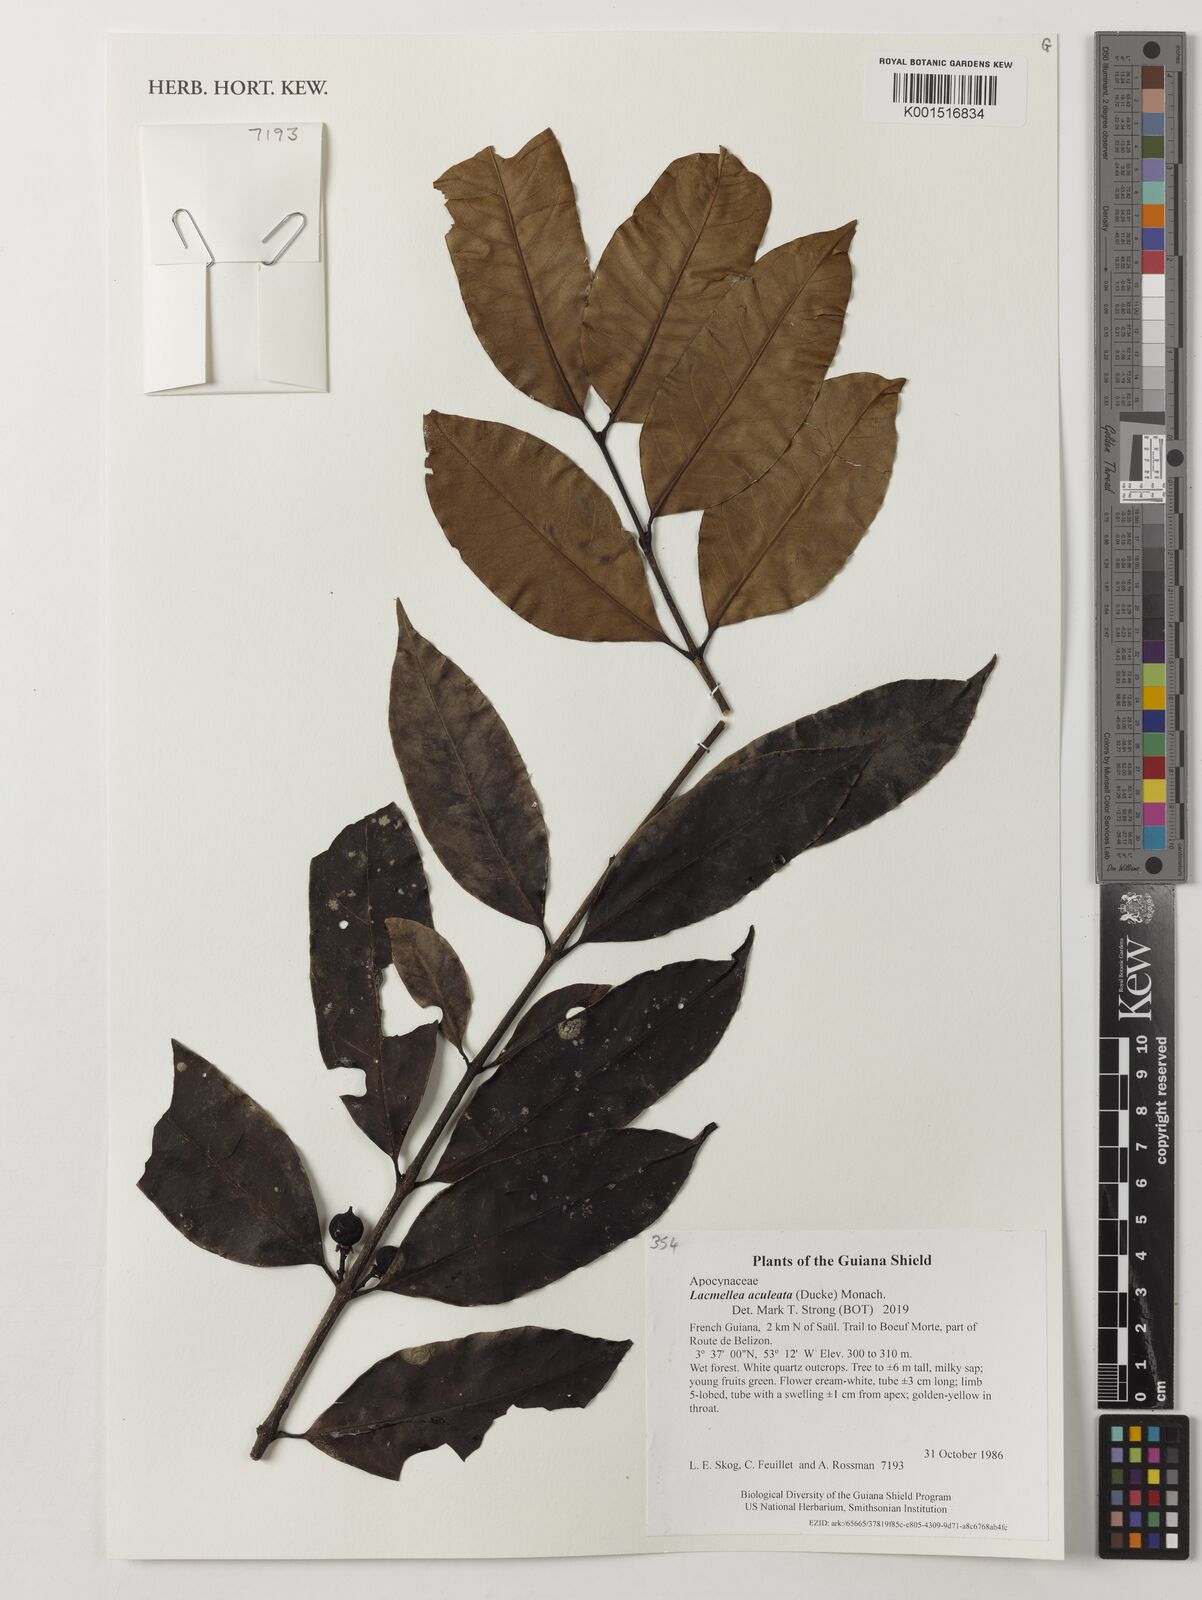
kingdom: Plantae
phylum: Tracheophyta
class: Magnoliopsida
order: Gentianales
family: Apocynaceae
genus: Lacmellea
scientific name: Lacmellea aculeata
